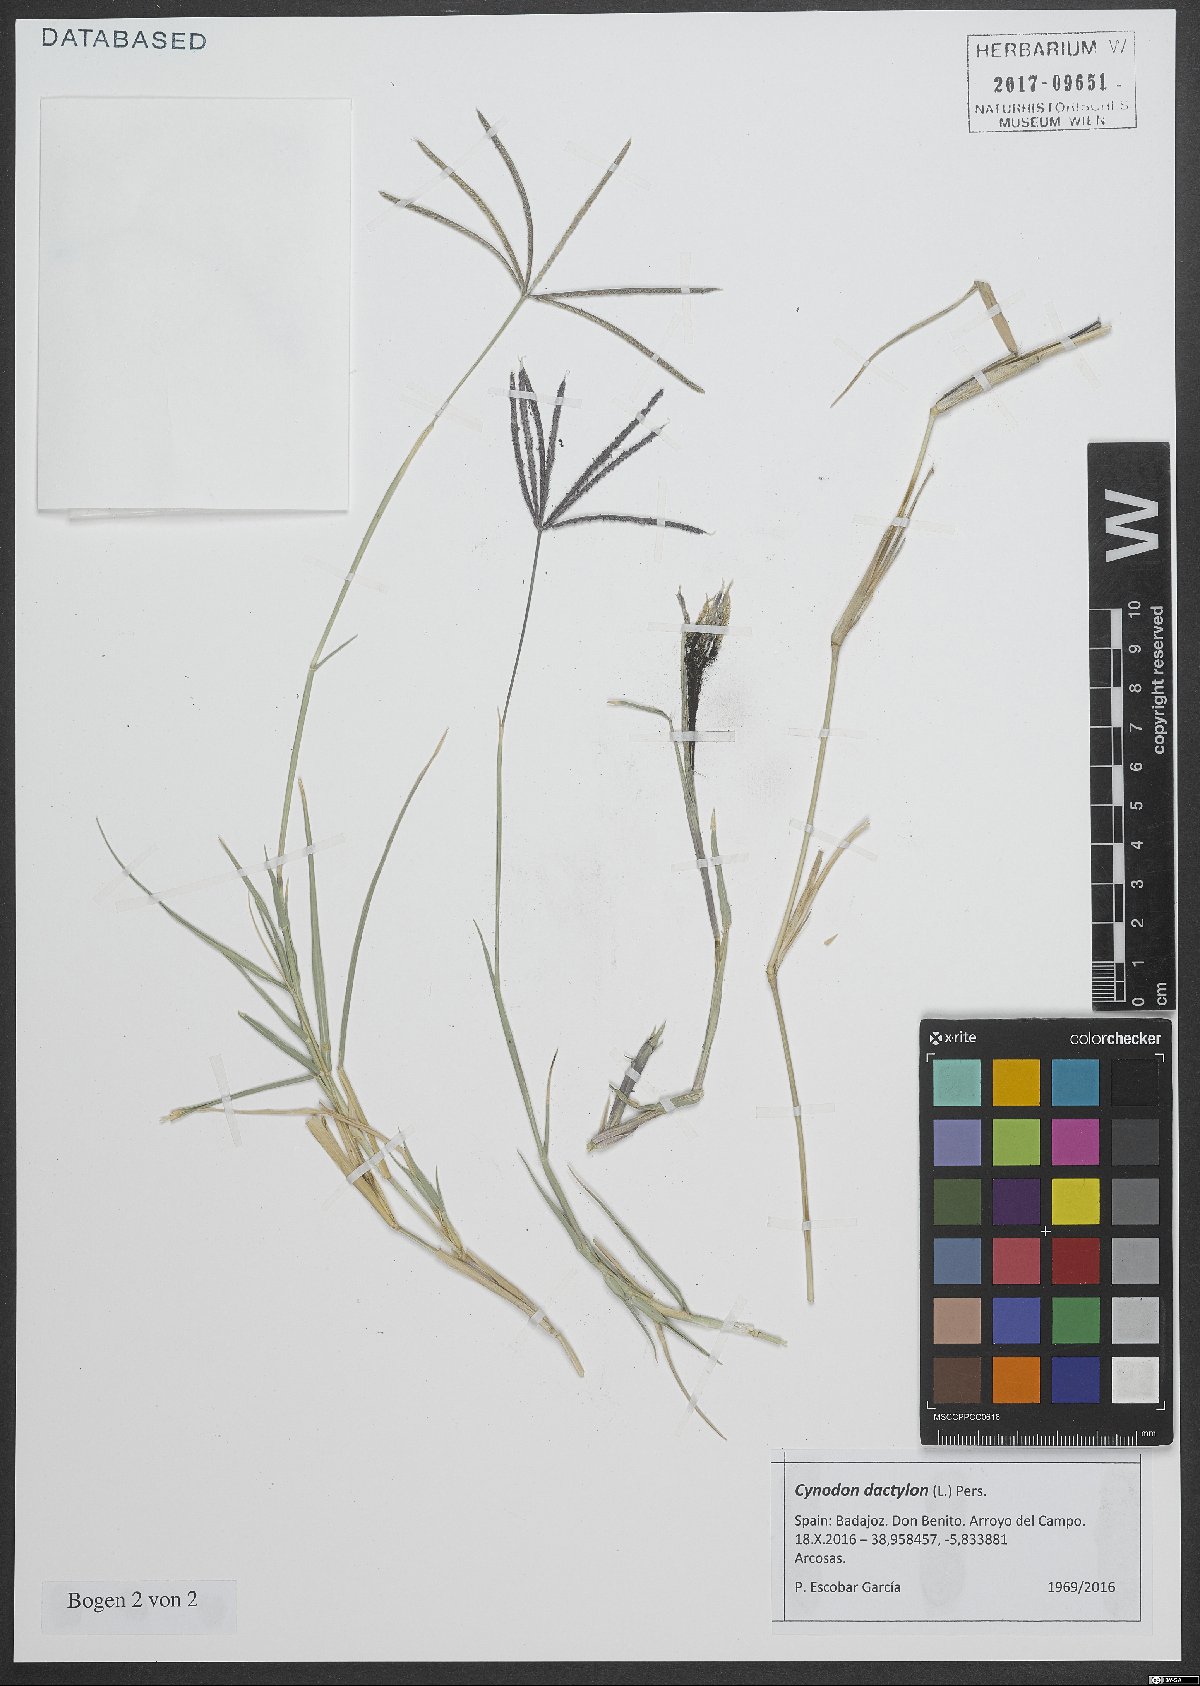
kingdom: Plantae
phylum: Tracheophyta
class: Liliopsida
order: Poales
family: Poaceae
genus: Cynodon
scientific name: Cynodon dactylon
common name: Bermuda grass
